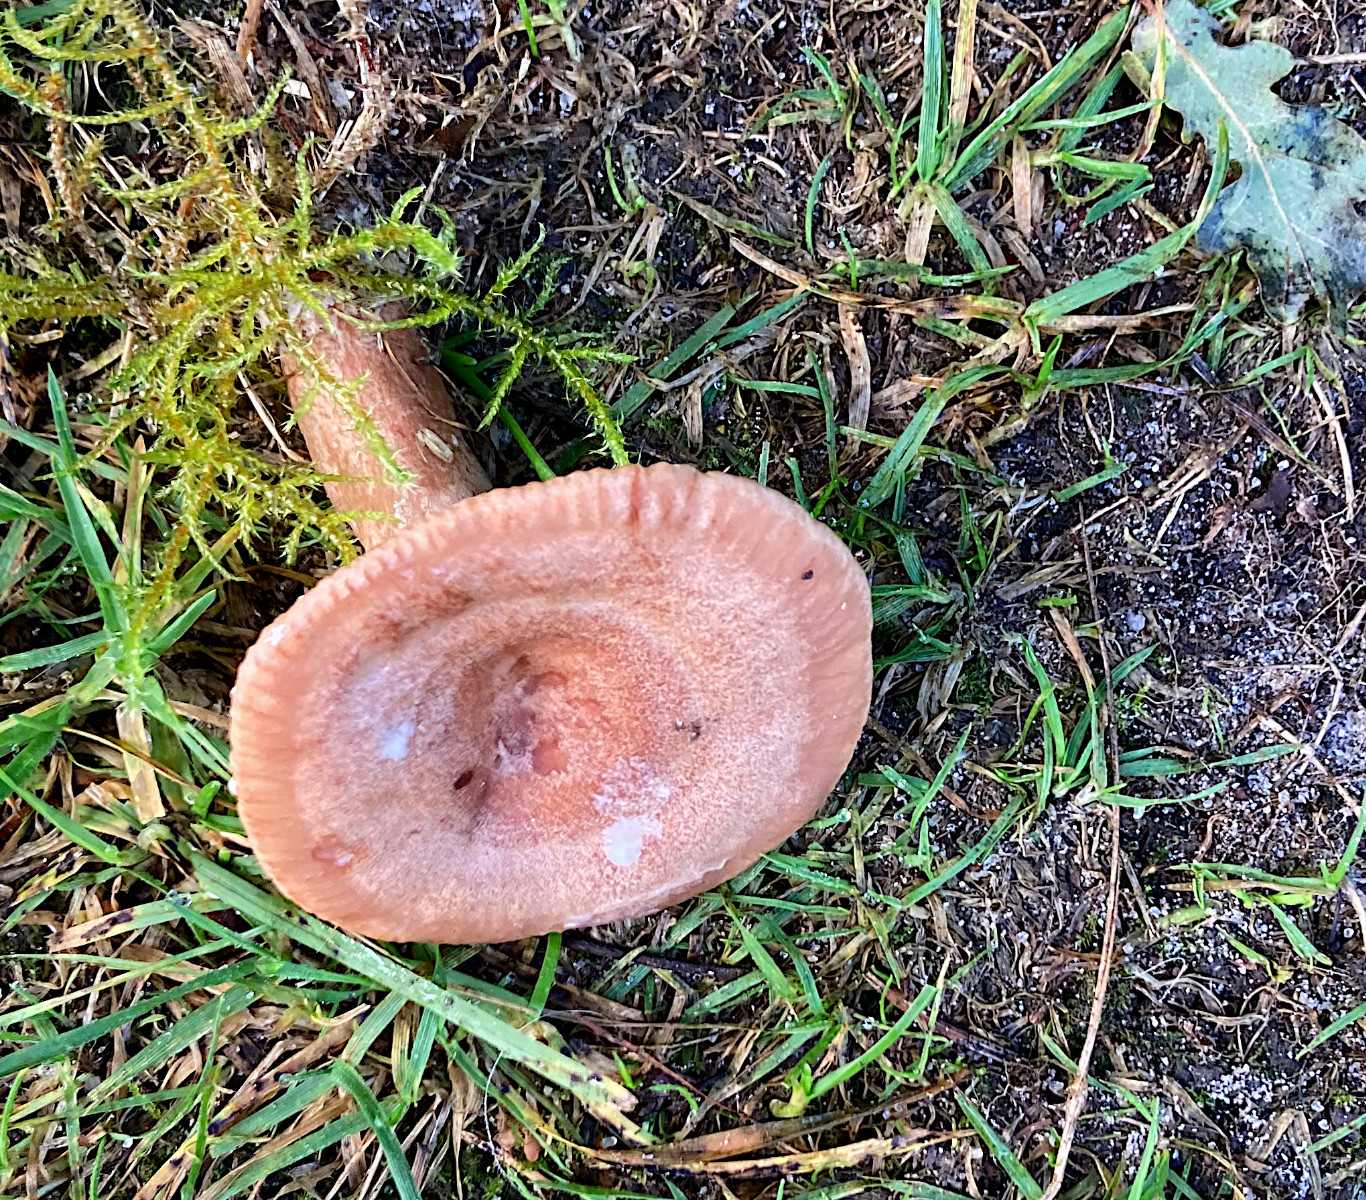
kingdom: Fungi
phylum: Basidiomycota
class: Agaricomycetes
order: Russulales
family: Russulaceae
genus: Lactarius
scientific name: Lactarius quietus
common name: ege-mælkehat
